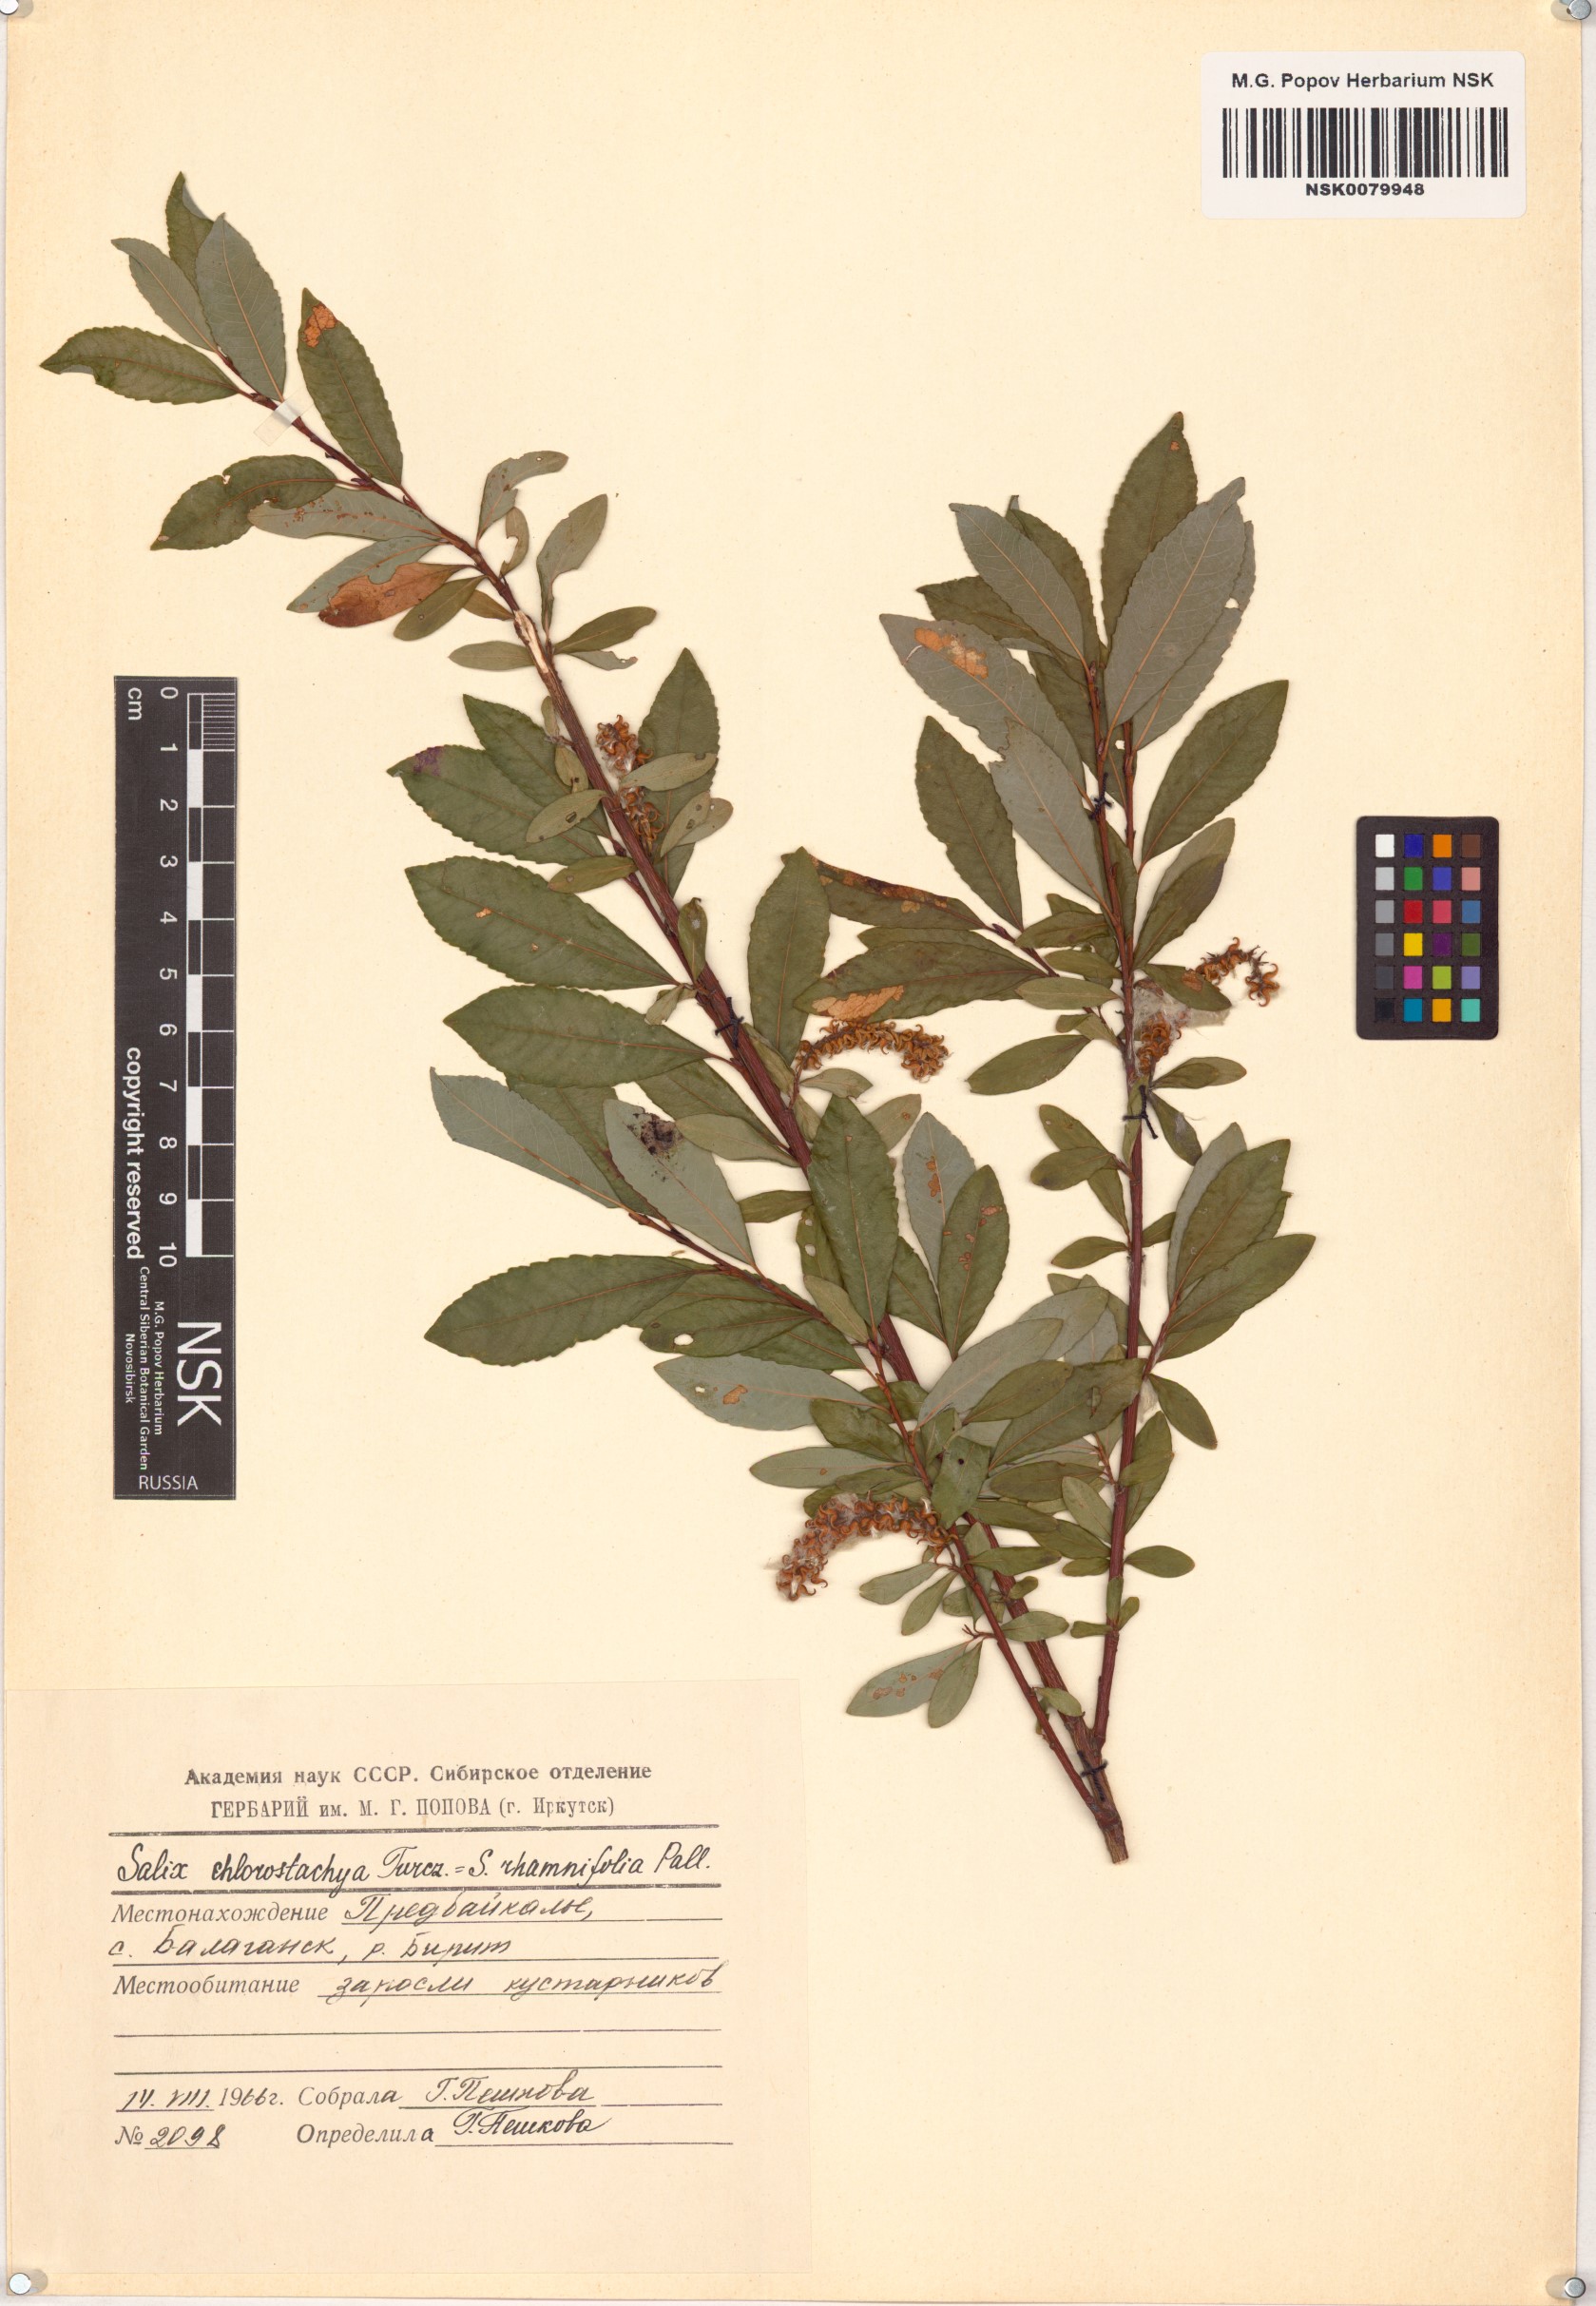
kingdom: Plantae
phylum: Tracheophyta
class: Magnoliopsida
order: Malpighiales
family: Salicaceae
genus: Salix
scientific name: Salix rhamnifolia
